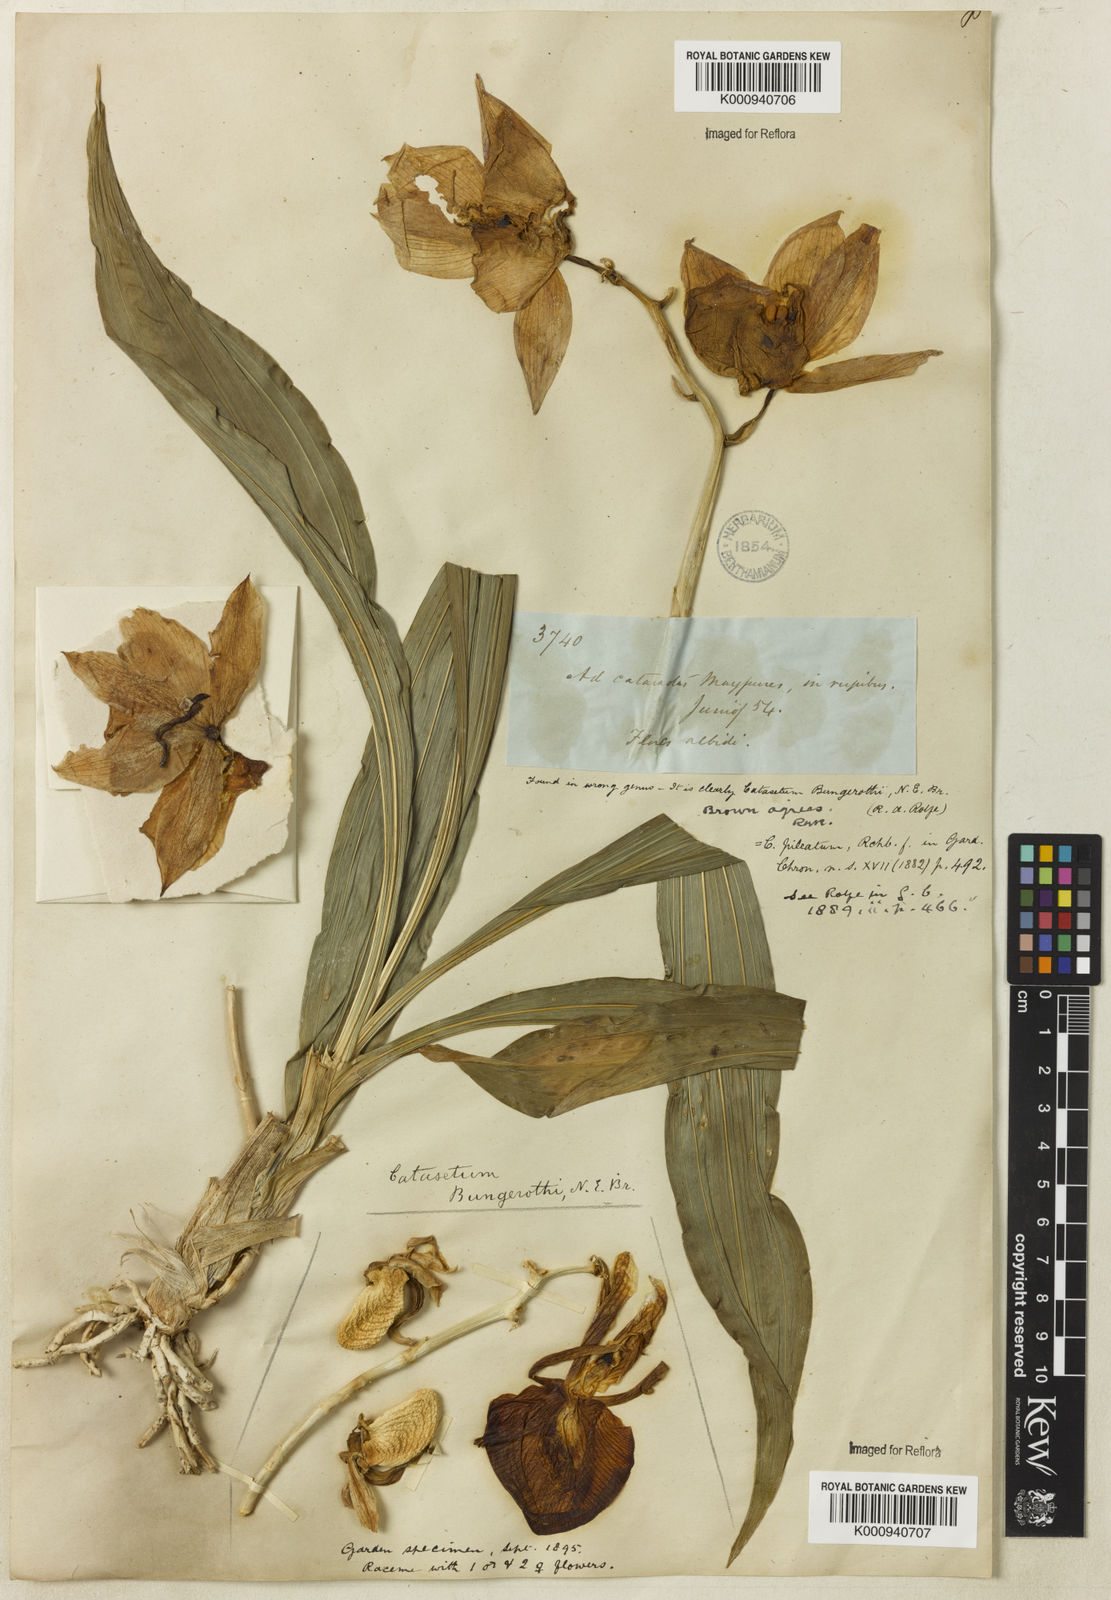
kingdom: Plantae
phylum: Tracheophyta
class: Liliopsida
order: Asparagales
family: Orchidaceae
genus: Catasetum
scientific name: Catasetum
